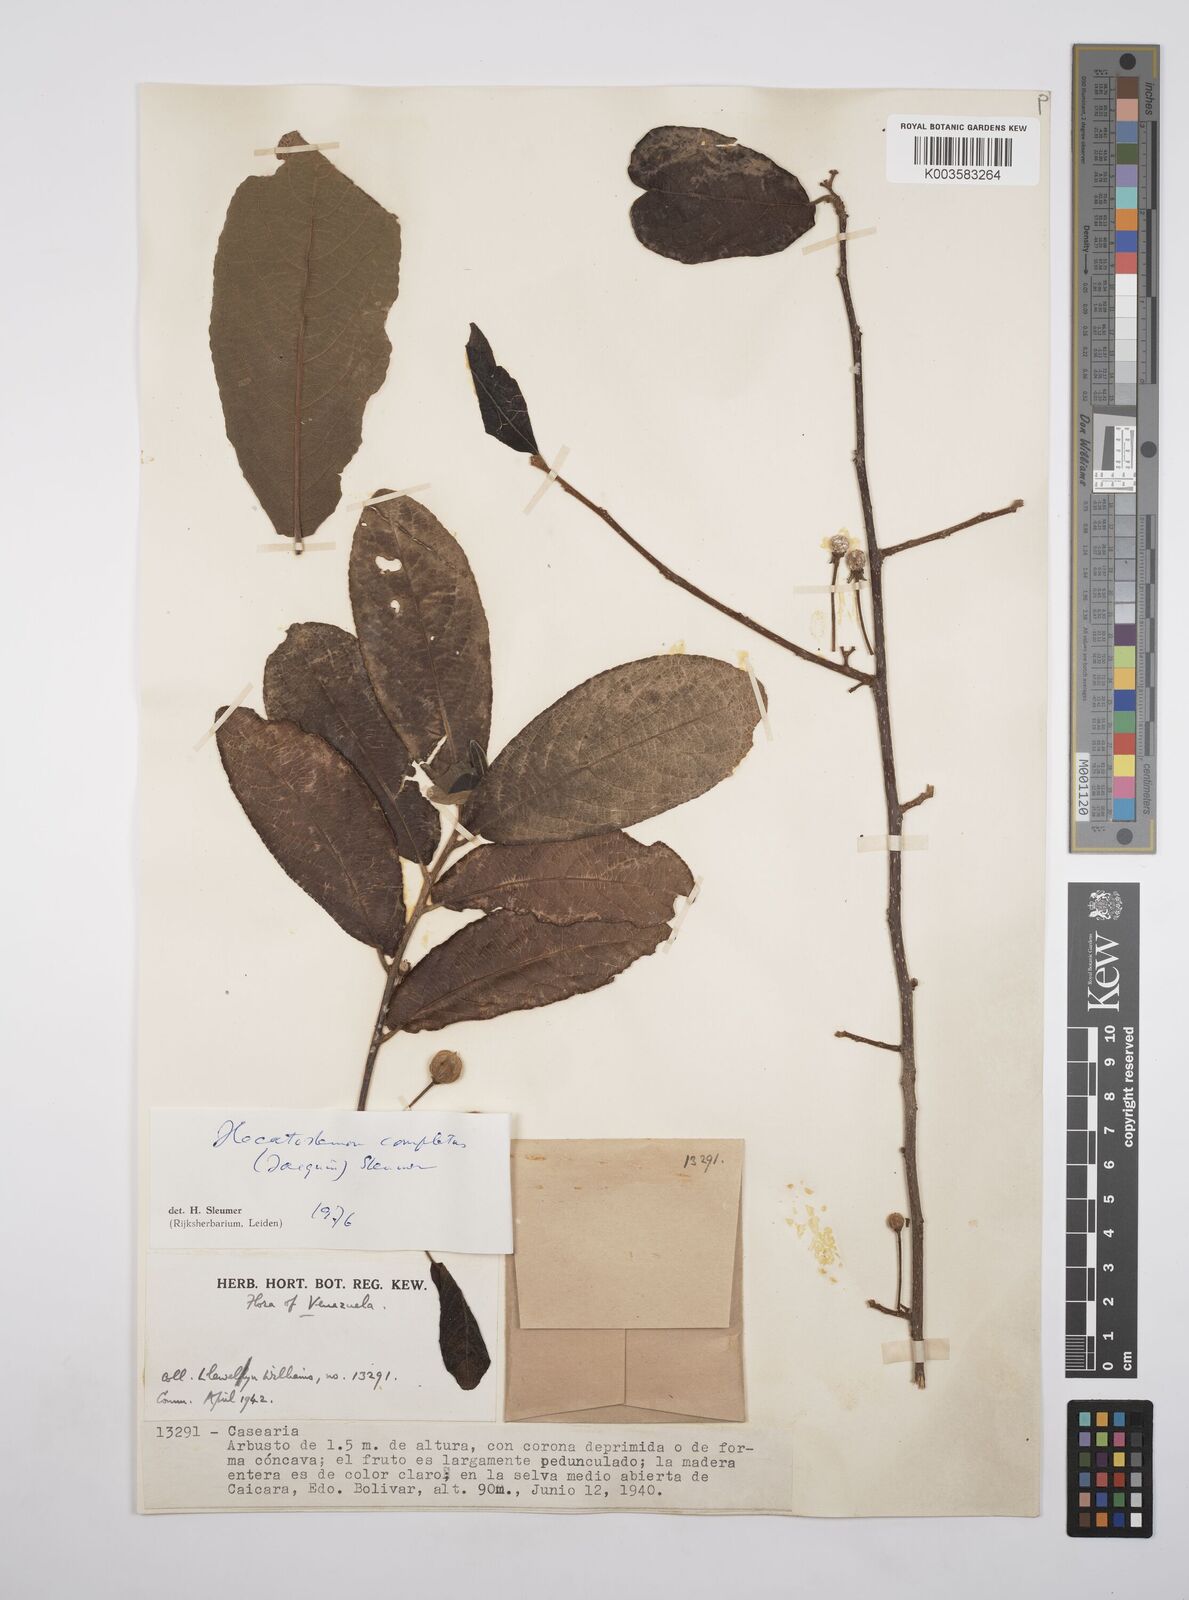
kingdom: Plantae
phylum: Tracheophyta
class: Magnoliopsida
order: Malpighiales
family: Salicaceae
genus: Casearia
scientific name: Casearia completa
